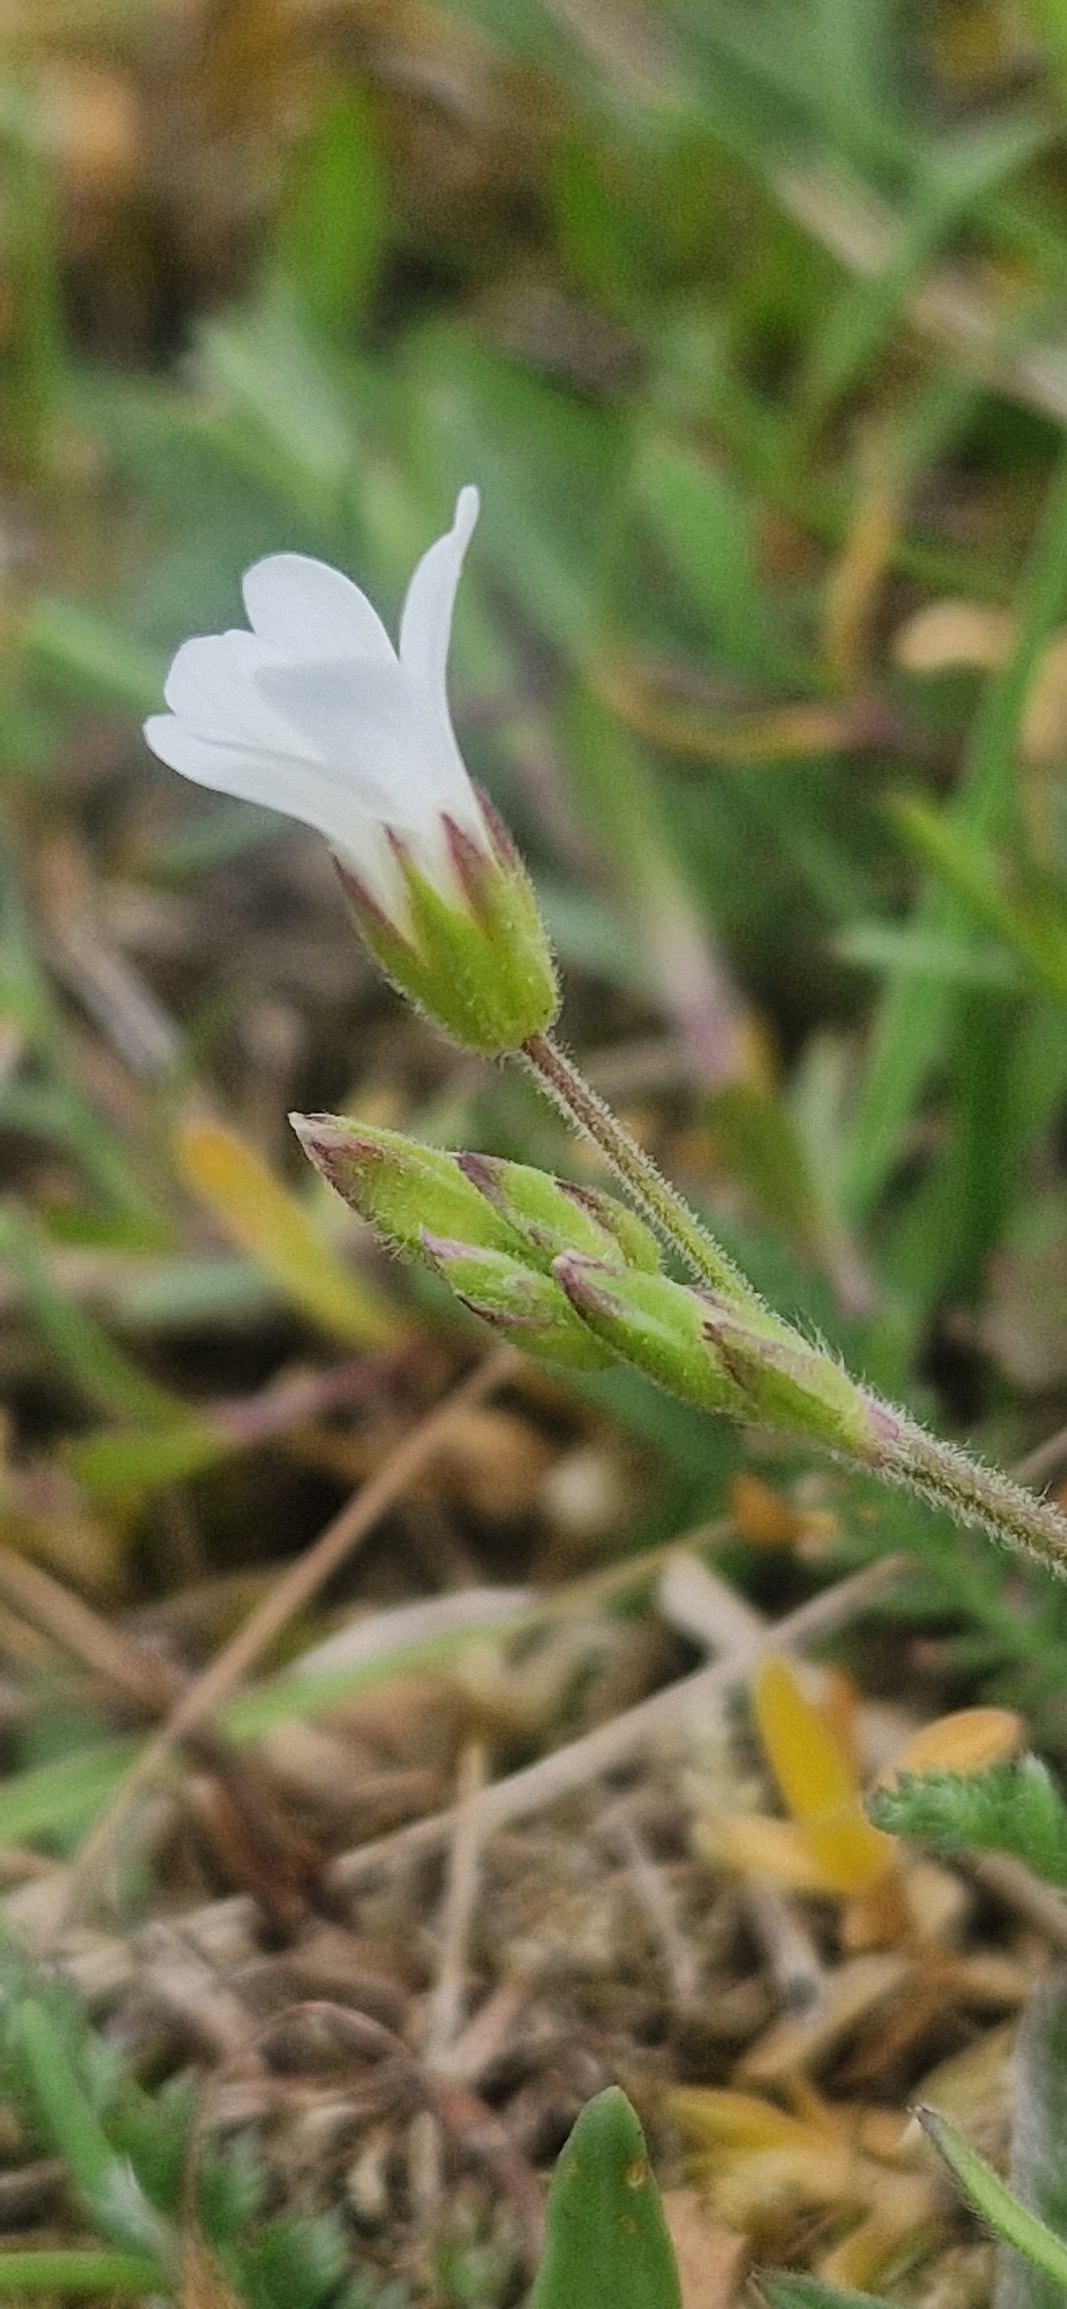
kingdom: Plantae
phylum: Tracheophyta
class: Magnoliopsida
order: Caryophyllales
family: Caryophyllaceae
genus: Cerastium
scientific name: Cerastium arvense
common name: Storblomstret hønsetarm
